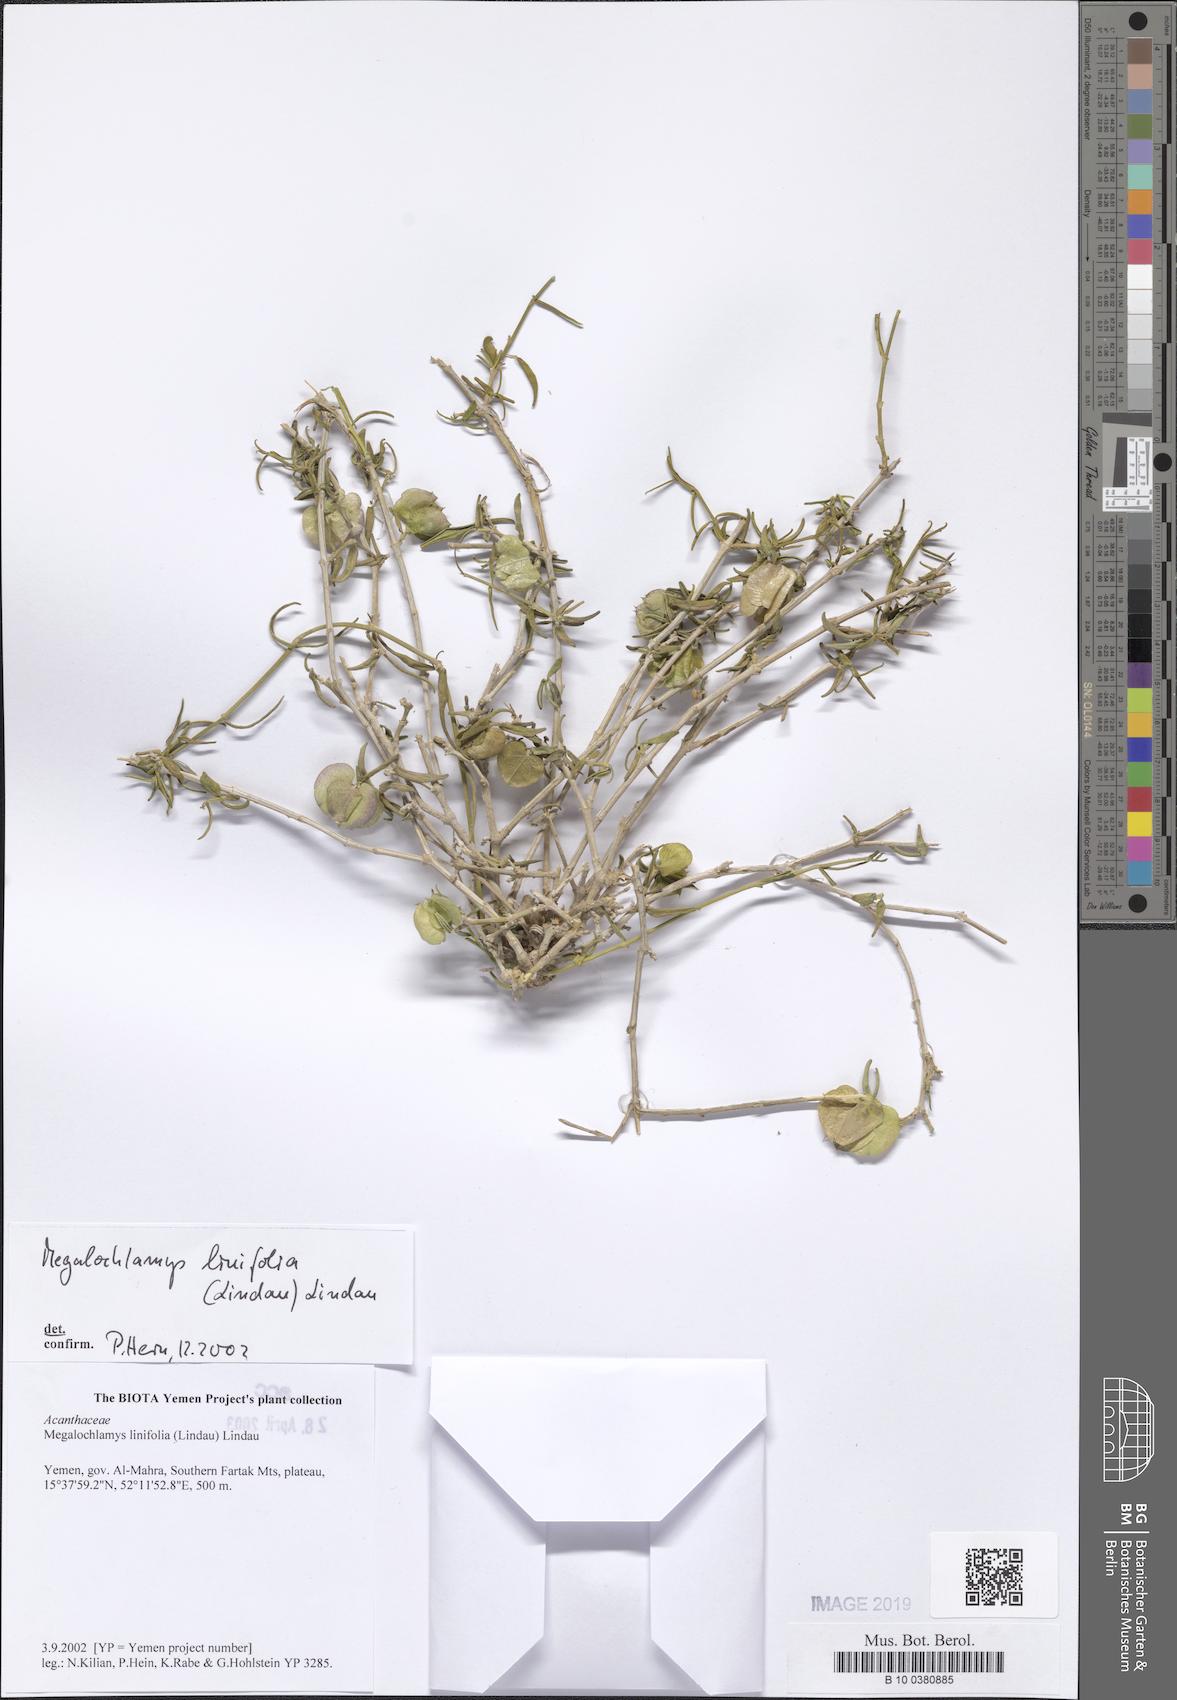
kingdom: Plantae
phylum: Tracheophyta
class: Magnoliopsida
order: Lamiales
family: Acanthaceae
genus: Megalochlamys
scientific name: Megalochlamys linifolia
